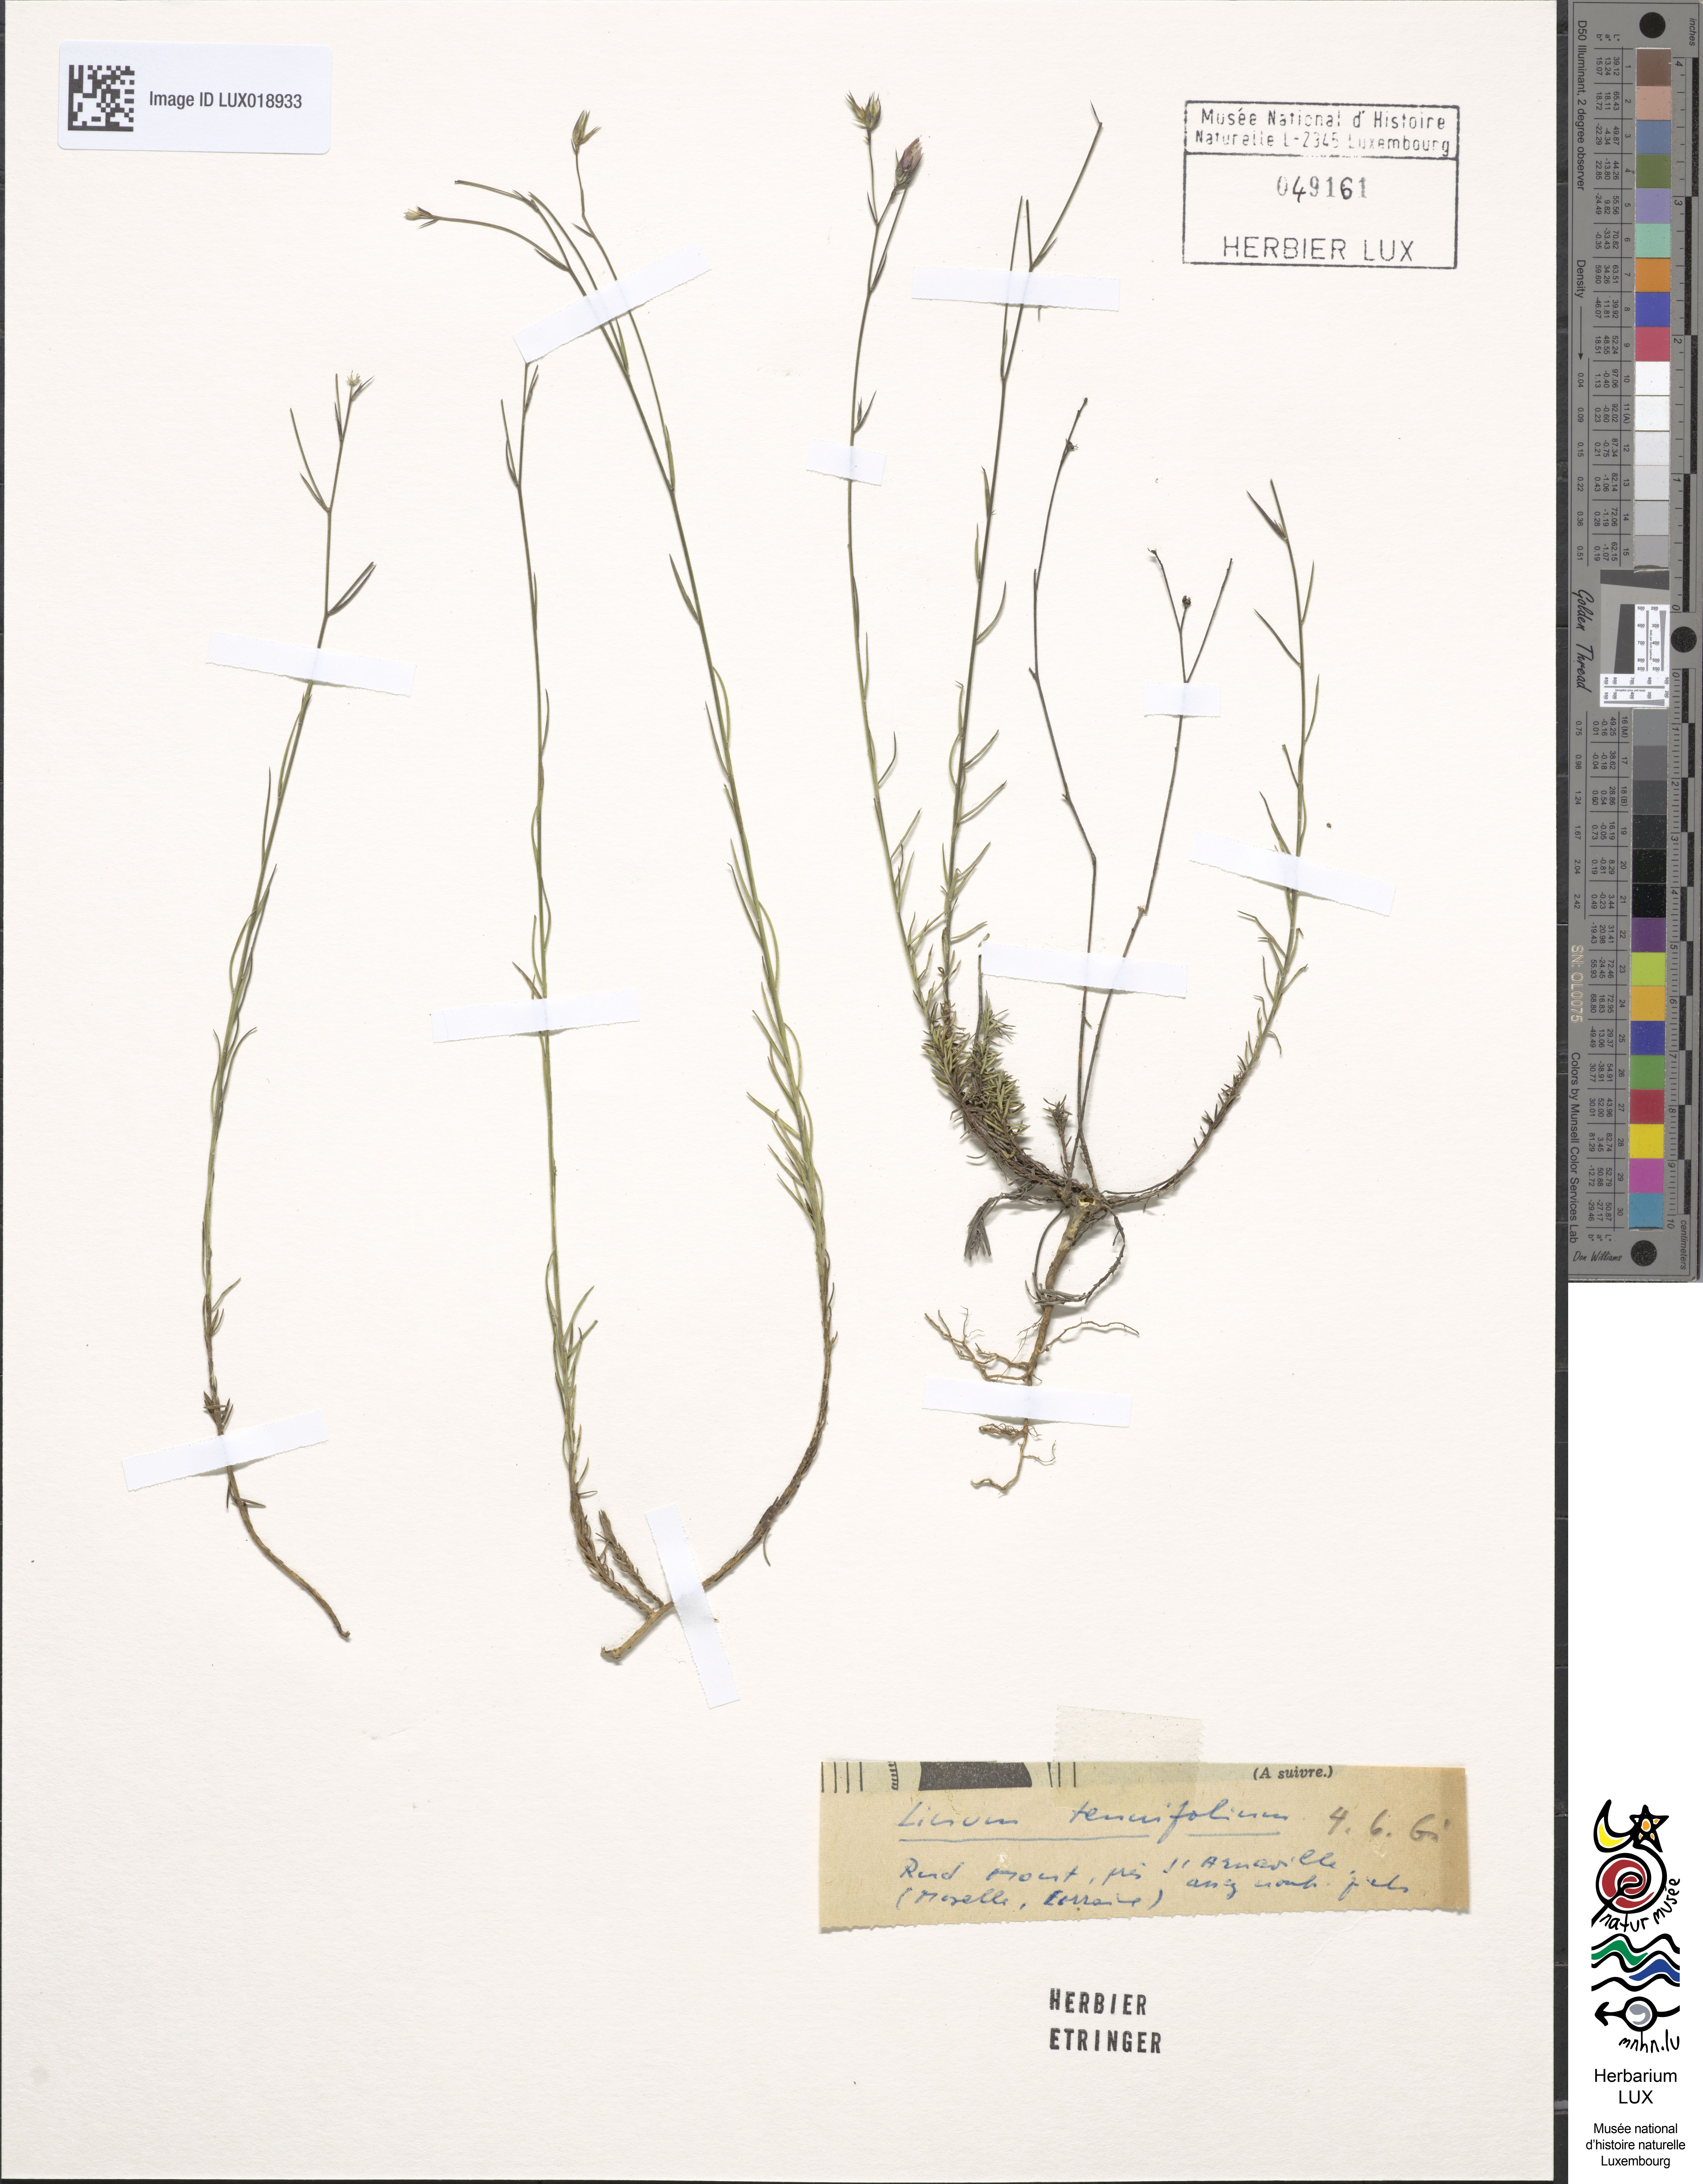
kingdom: Plantae
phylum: Tracheophyta
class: Magnoliopsida
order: Malpighiales
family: Linaceae
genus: Linum
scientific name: Linum tenuifolium
